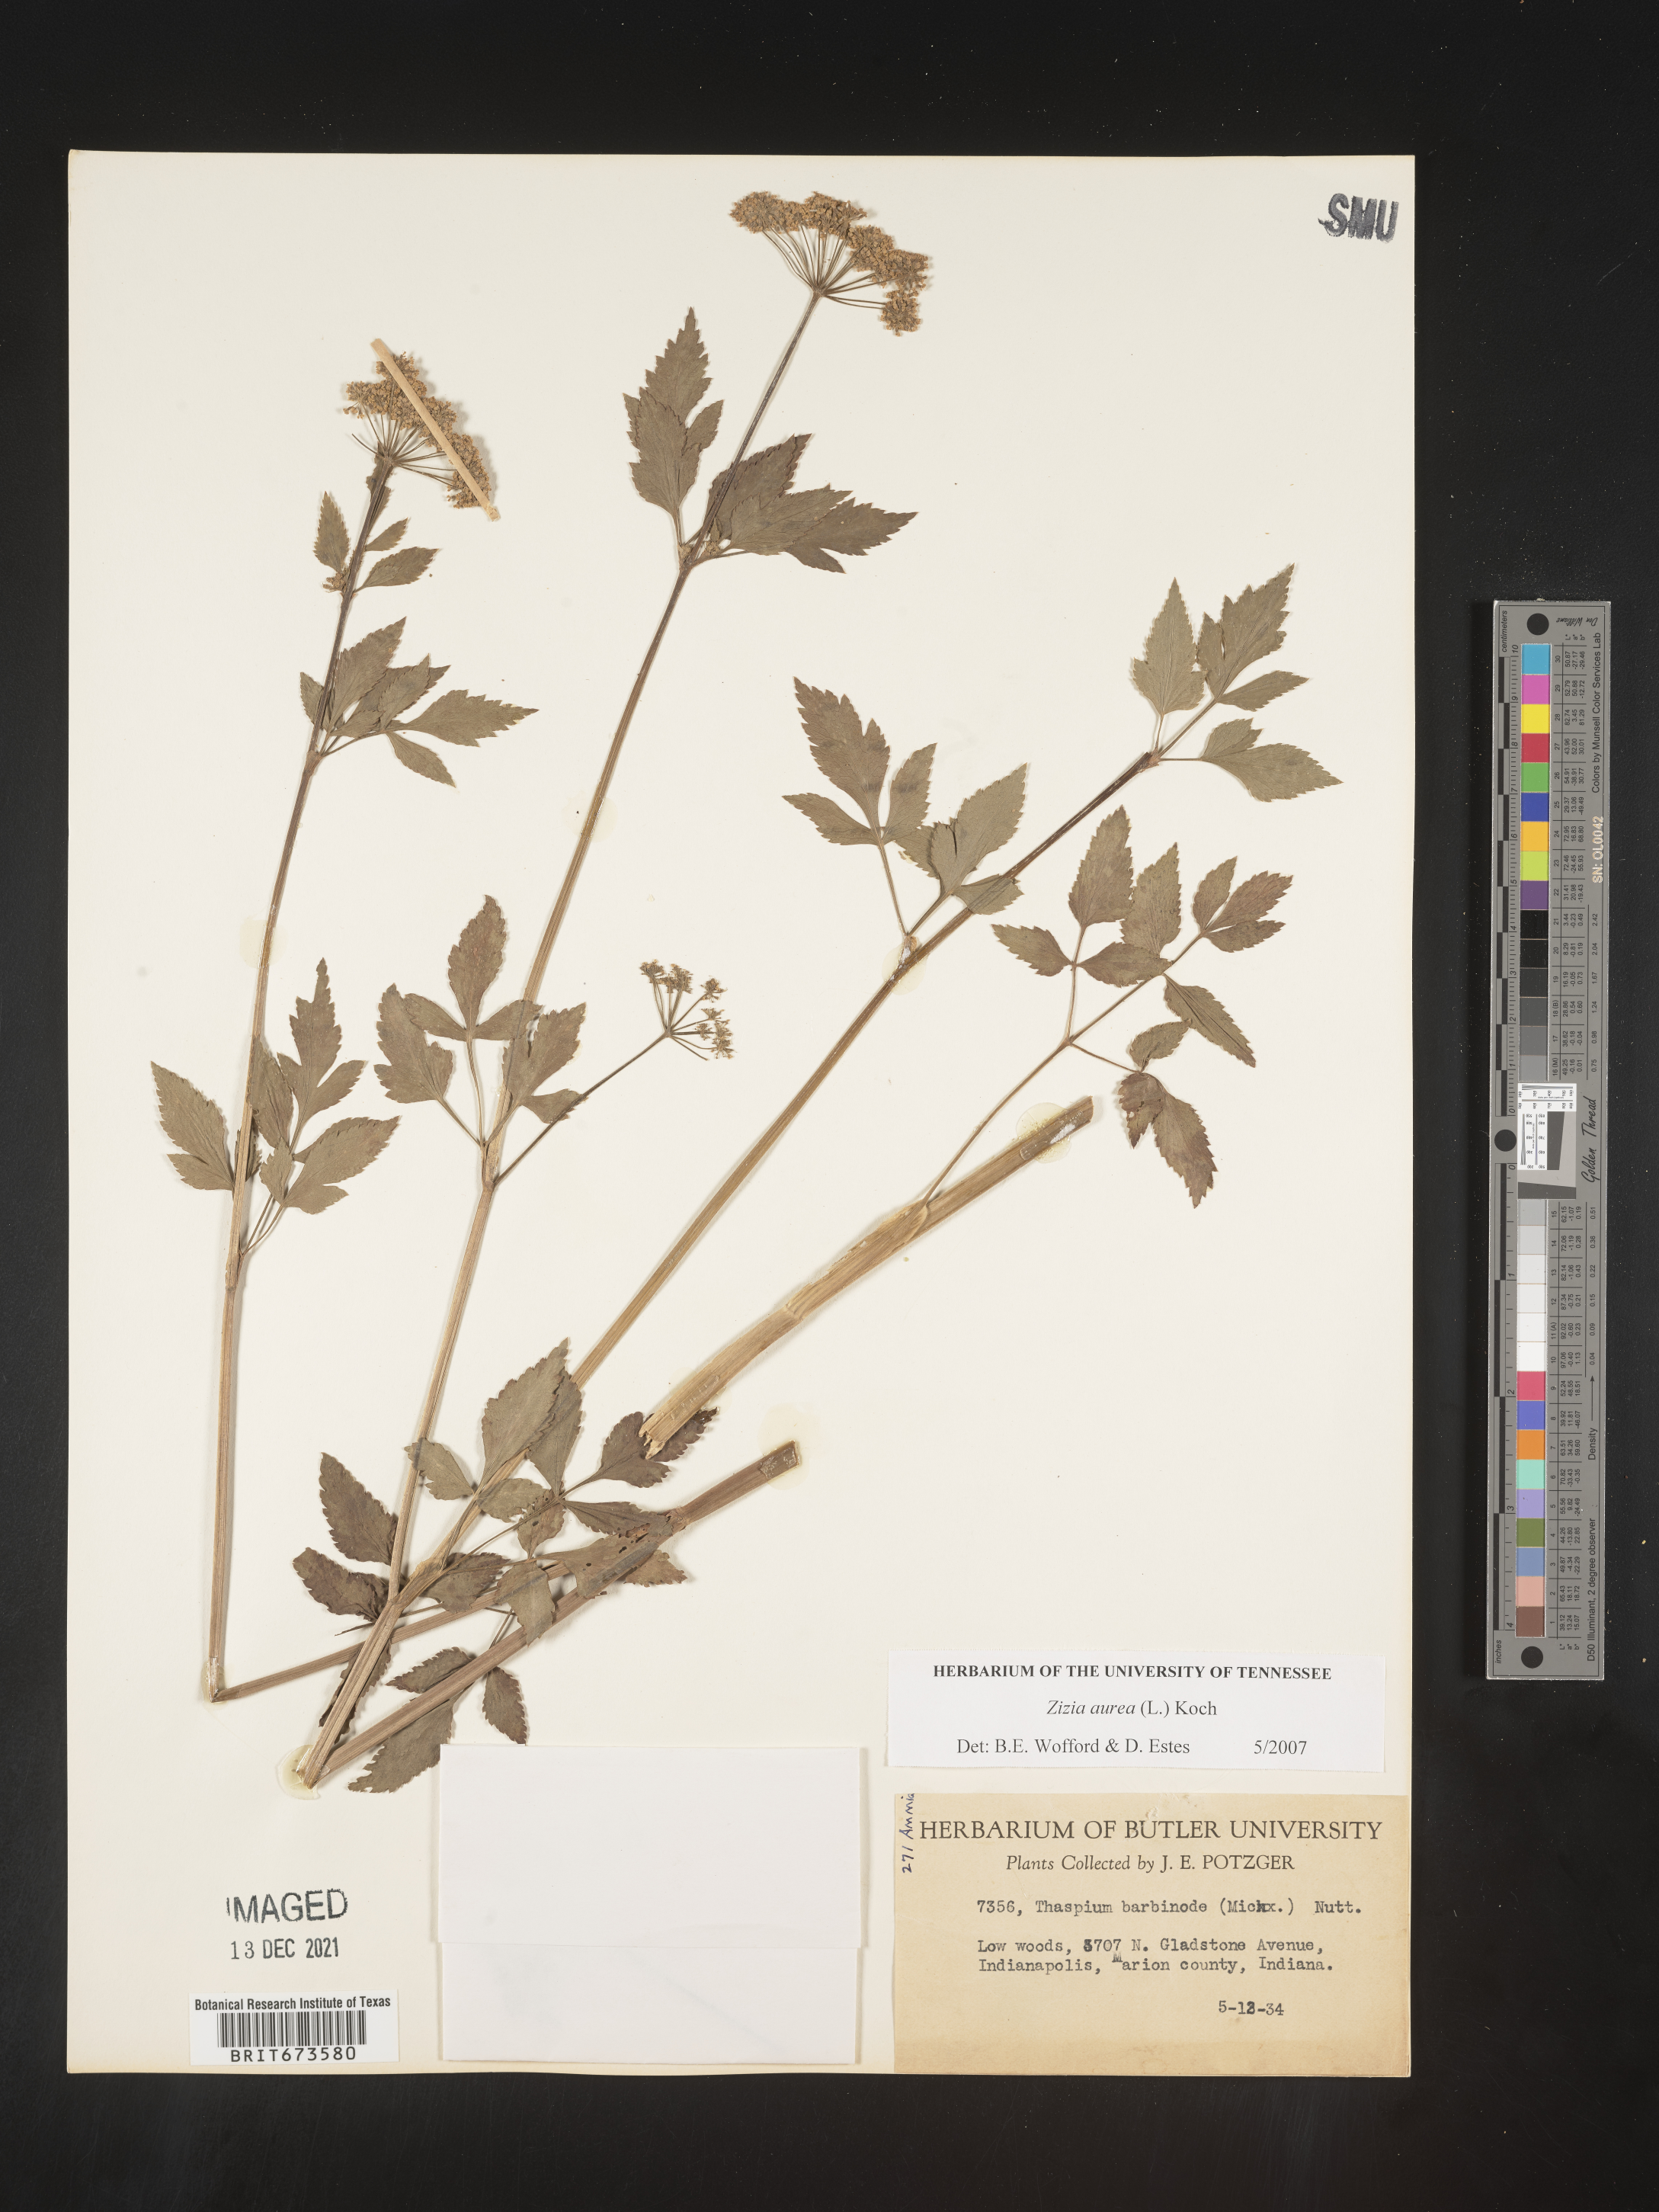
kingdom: Plantae
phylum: Tracheophyta
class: Magnoliopsida
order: Apiales
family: Apiaceae
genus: Zizia
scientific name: Zizia aurea
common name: Golden alexanders
